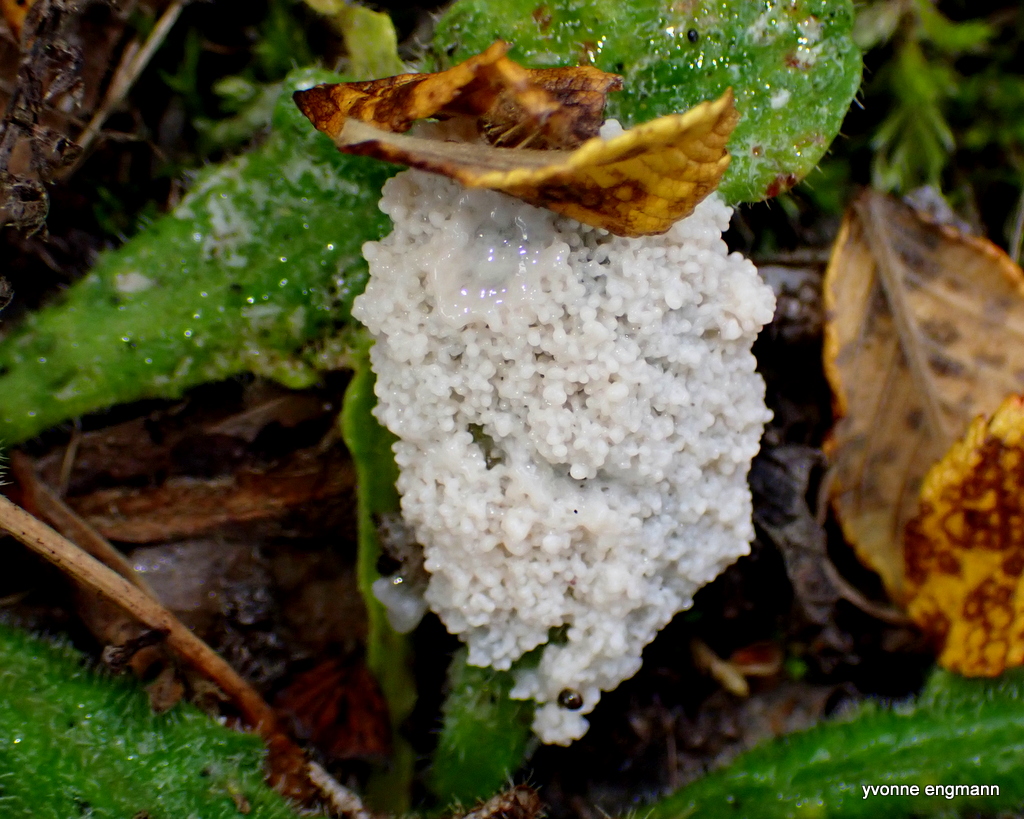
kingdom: Protozoa
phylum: Mycetozoa
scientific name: Mycetozoa
